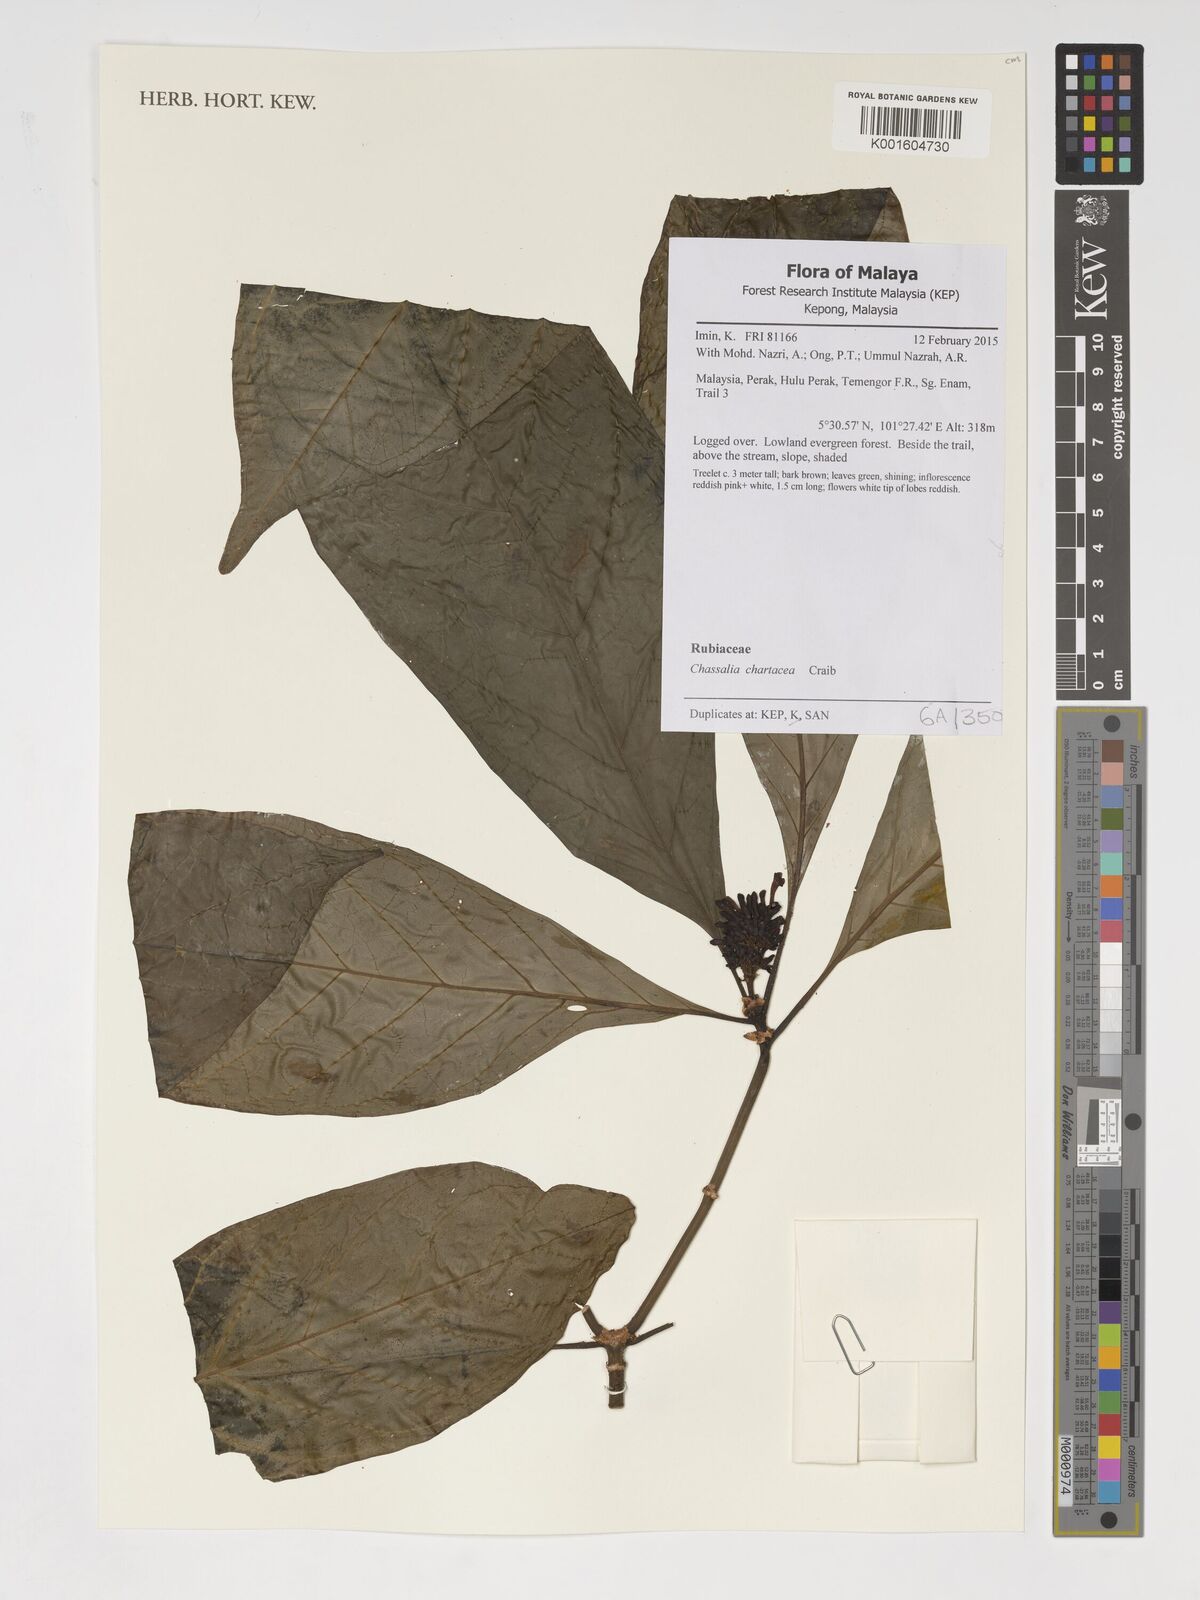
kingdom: Plantae
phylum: Tracheophyta
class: Magnoliopsida
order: Gentianales
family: Rubiaceae
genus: Chassalia
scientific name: Chassalia curviflora
